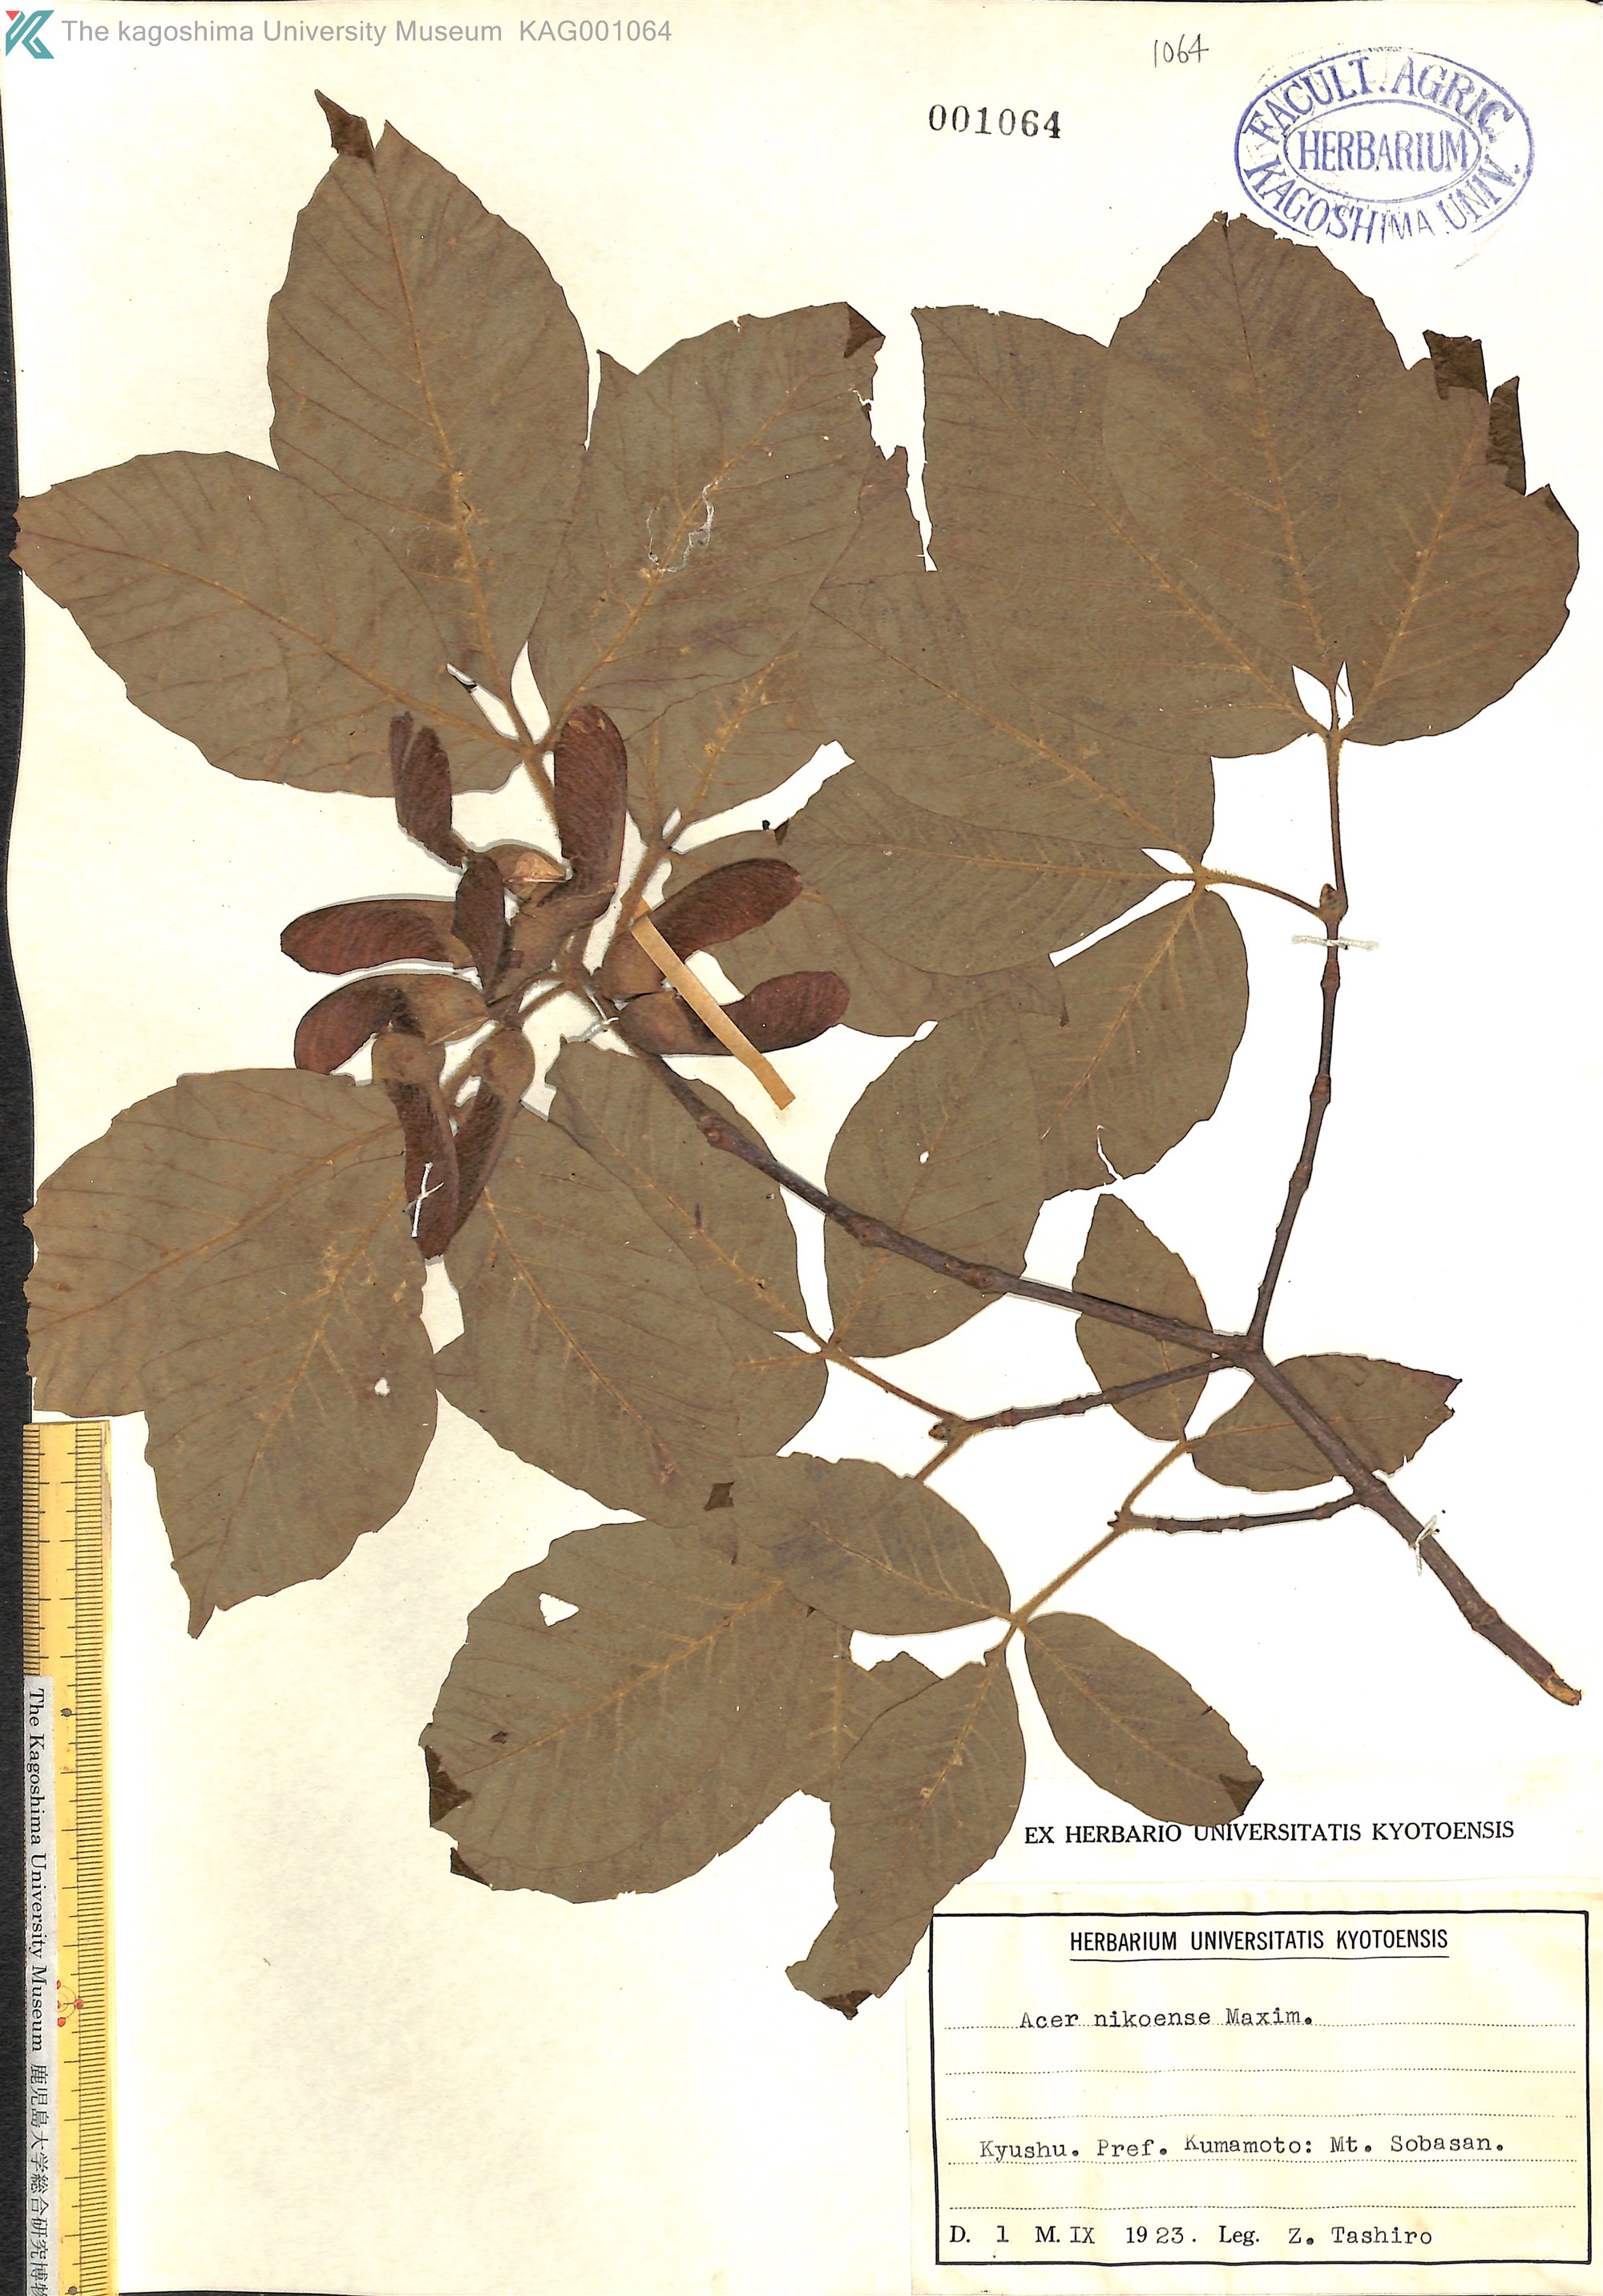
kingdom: Plantae
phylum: Tracheophyta
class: Magnoliopsida
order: Sapindales
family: Sapindaceae
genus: Acer
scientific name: Acer maximowiczianum
